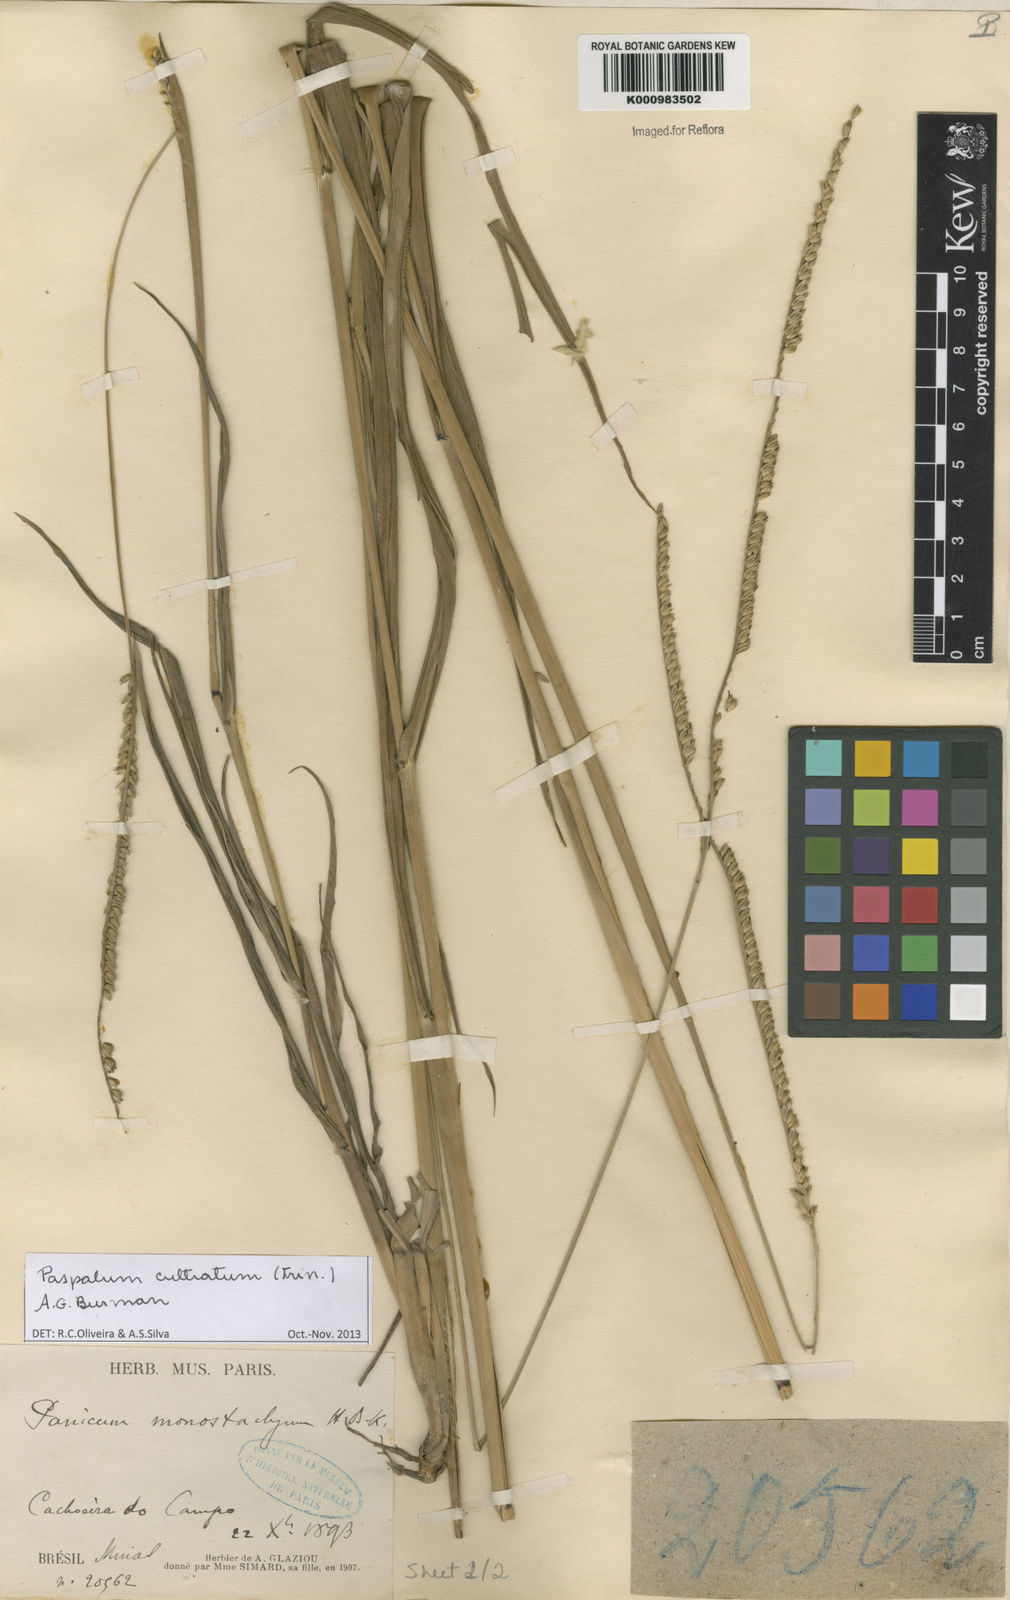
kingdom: Plantae
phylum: Tracheophyta
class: Liliopsida
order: Poales
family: Poaceae
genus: Paspalum
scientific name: Paspalum
